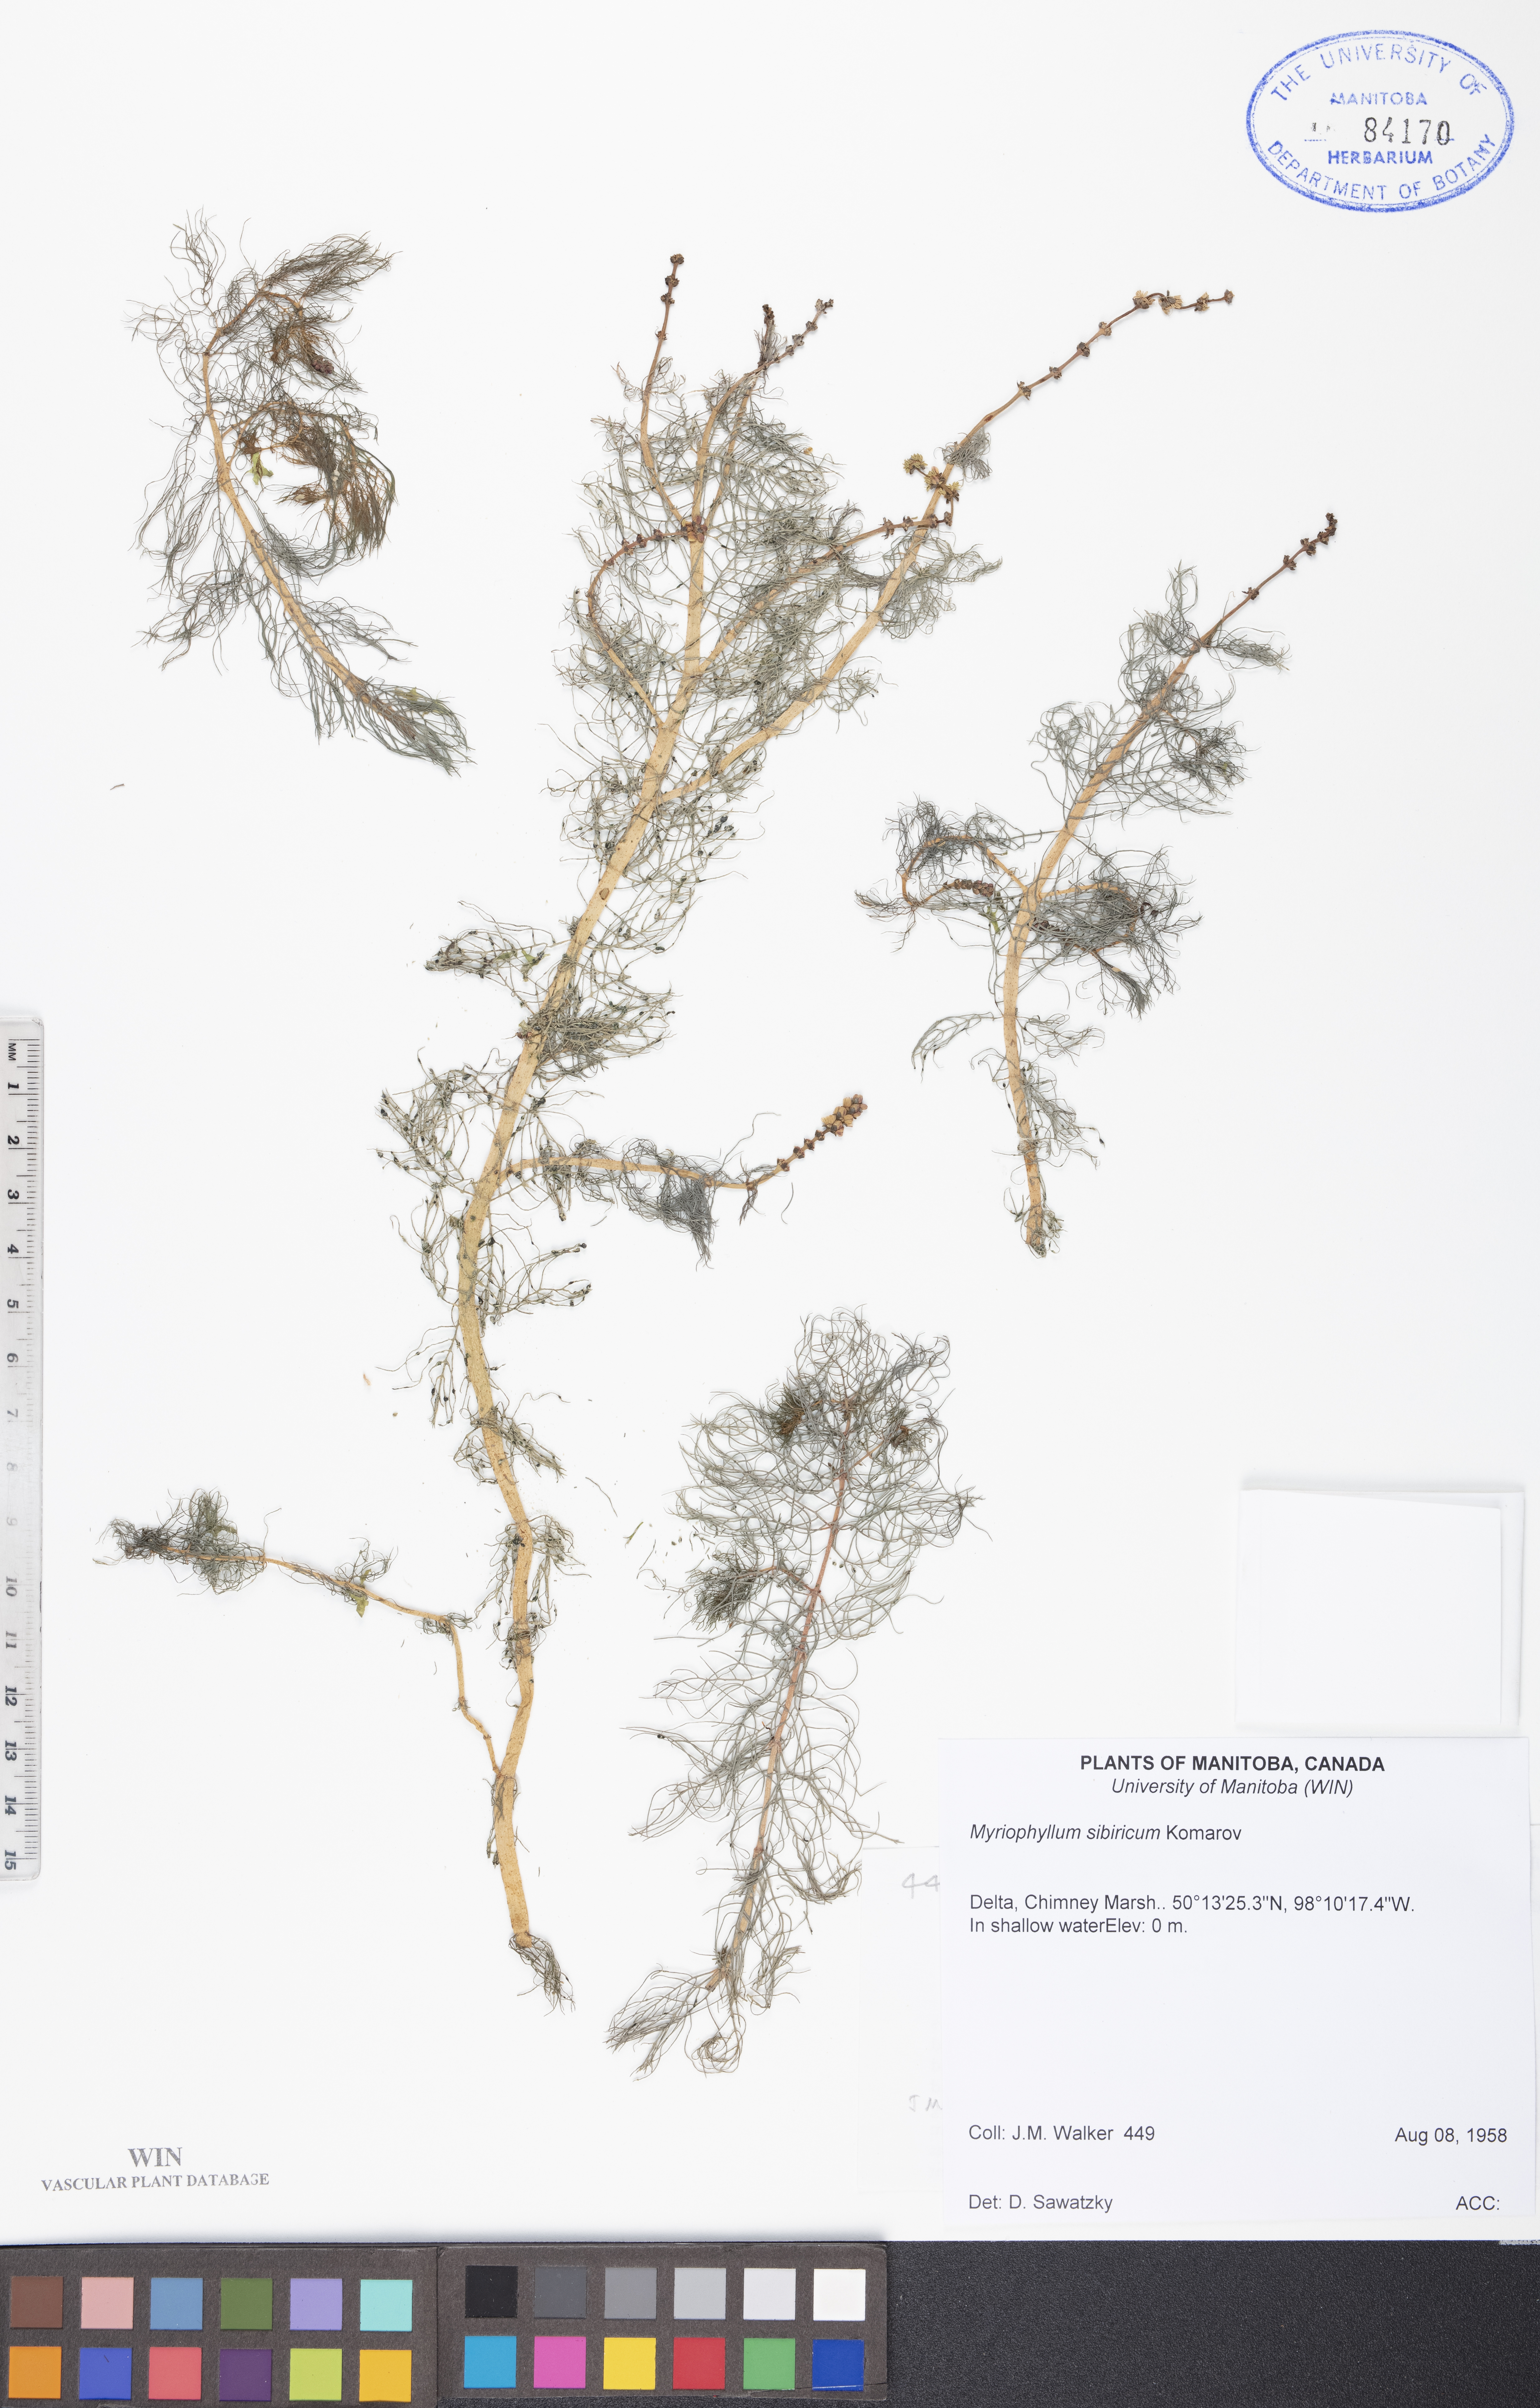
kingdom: Plantae
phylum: Tracheophyta
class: Magnoliopsida
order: Saxifragales
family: Haloragaceae
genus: Myriophyllum
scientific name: Myriophyllum sibiricum
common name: Siberian water-milfoil
